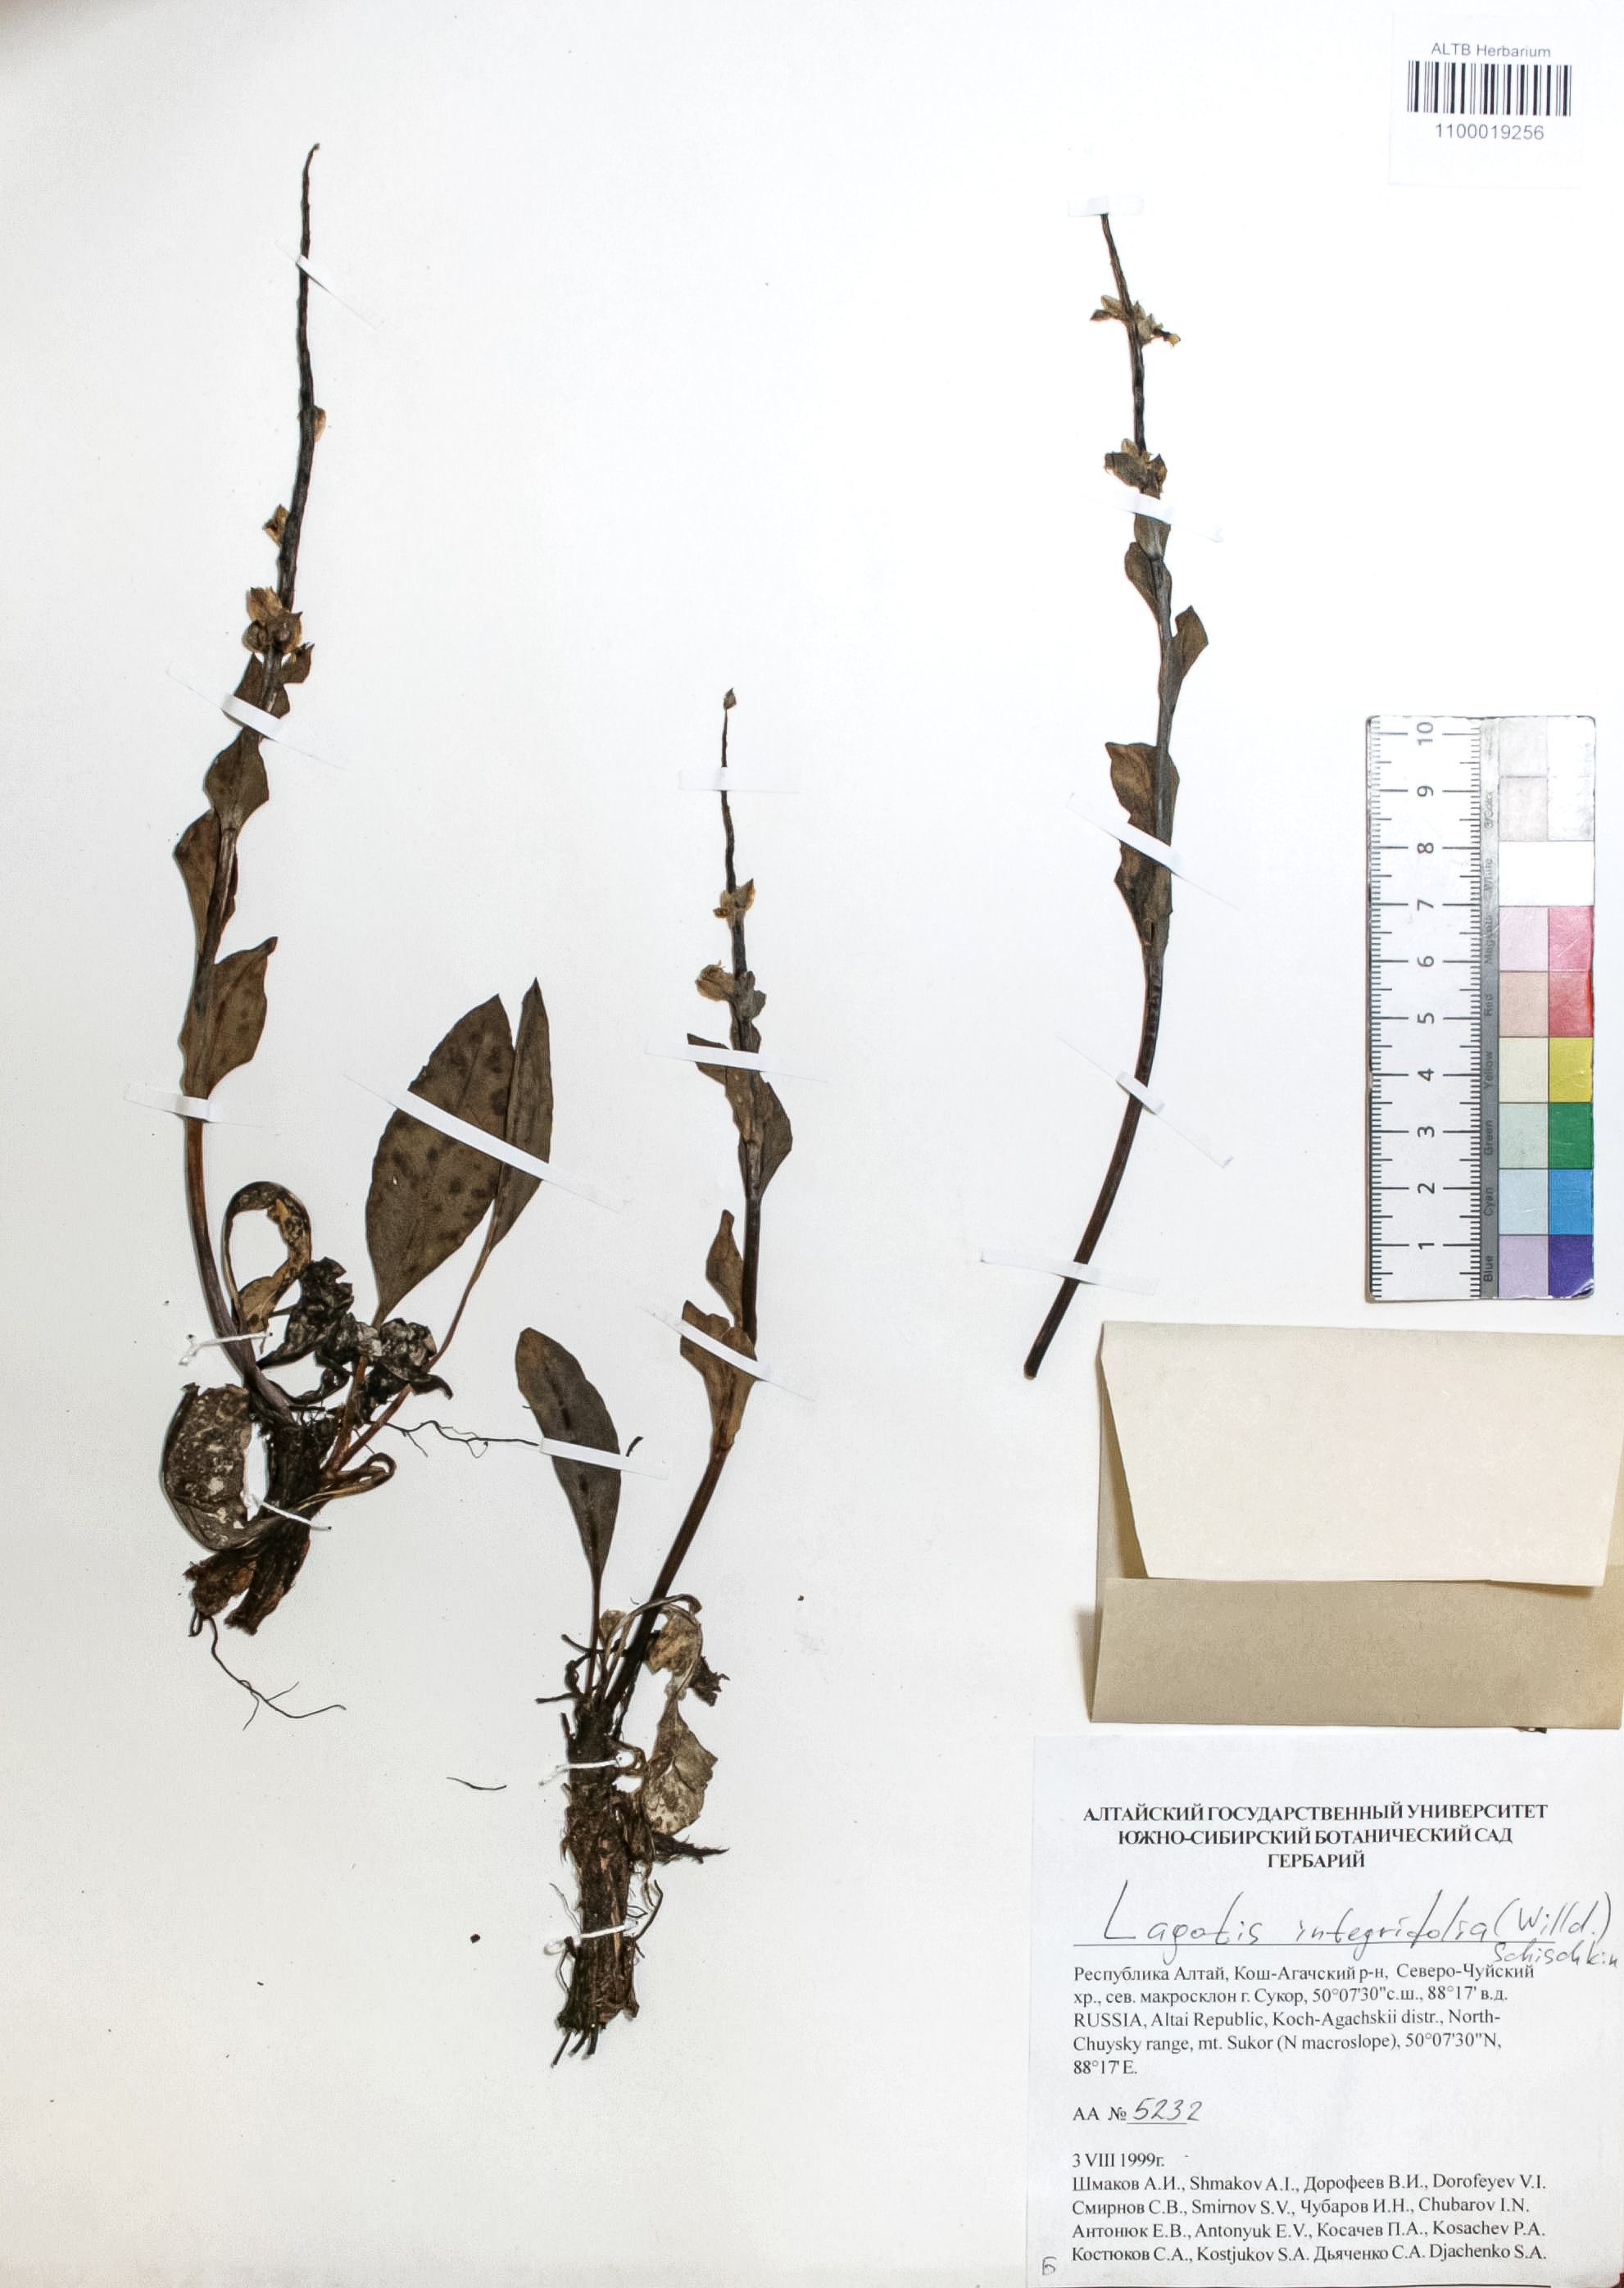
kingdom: Plantae
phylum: Tracheophyta
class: Magnoliopsida
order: Lamiales
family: Plantaginaceae
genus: Lagotis
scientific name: Lagotis integrifolia
